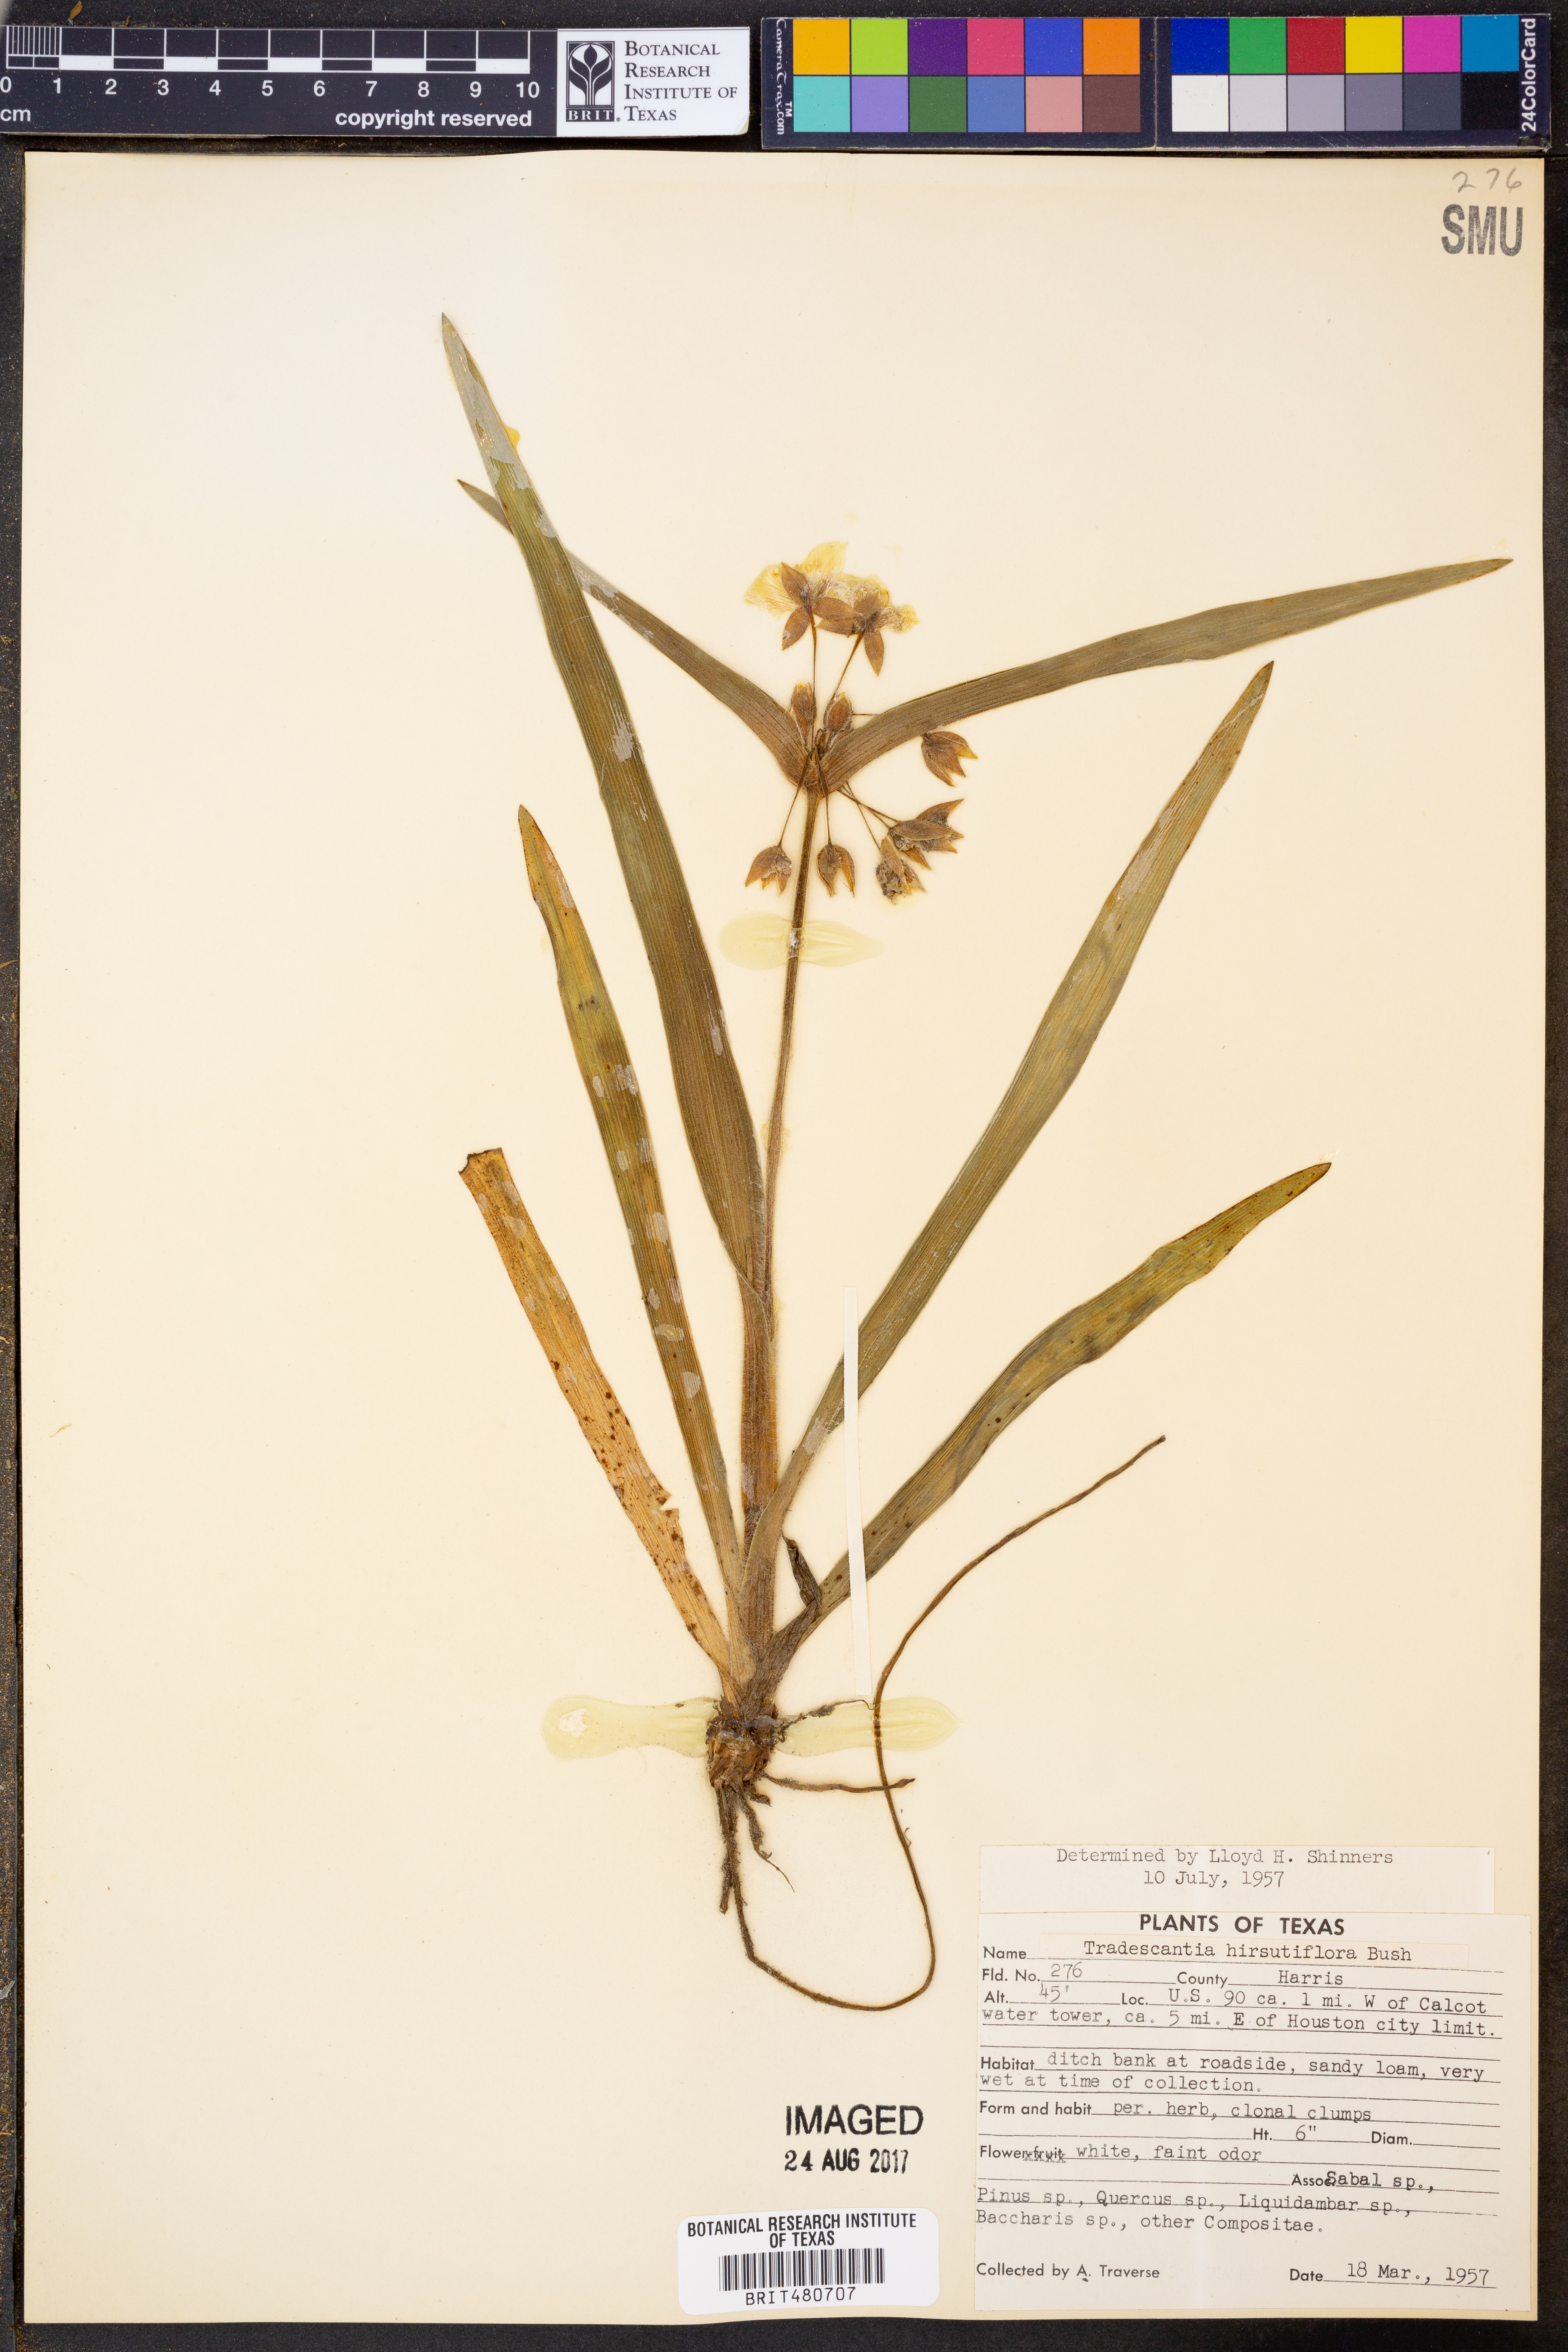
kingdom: Plantae
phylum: Tracheophyta
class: Liliopsida
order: Commelinales
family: Commelinaceae
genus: Tradescantia
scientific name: Tradescantia hirsutiflora
